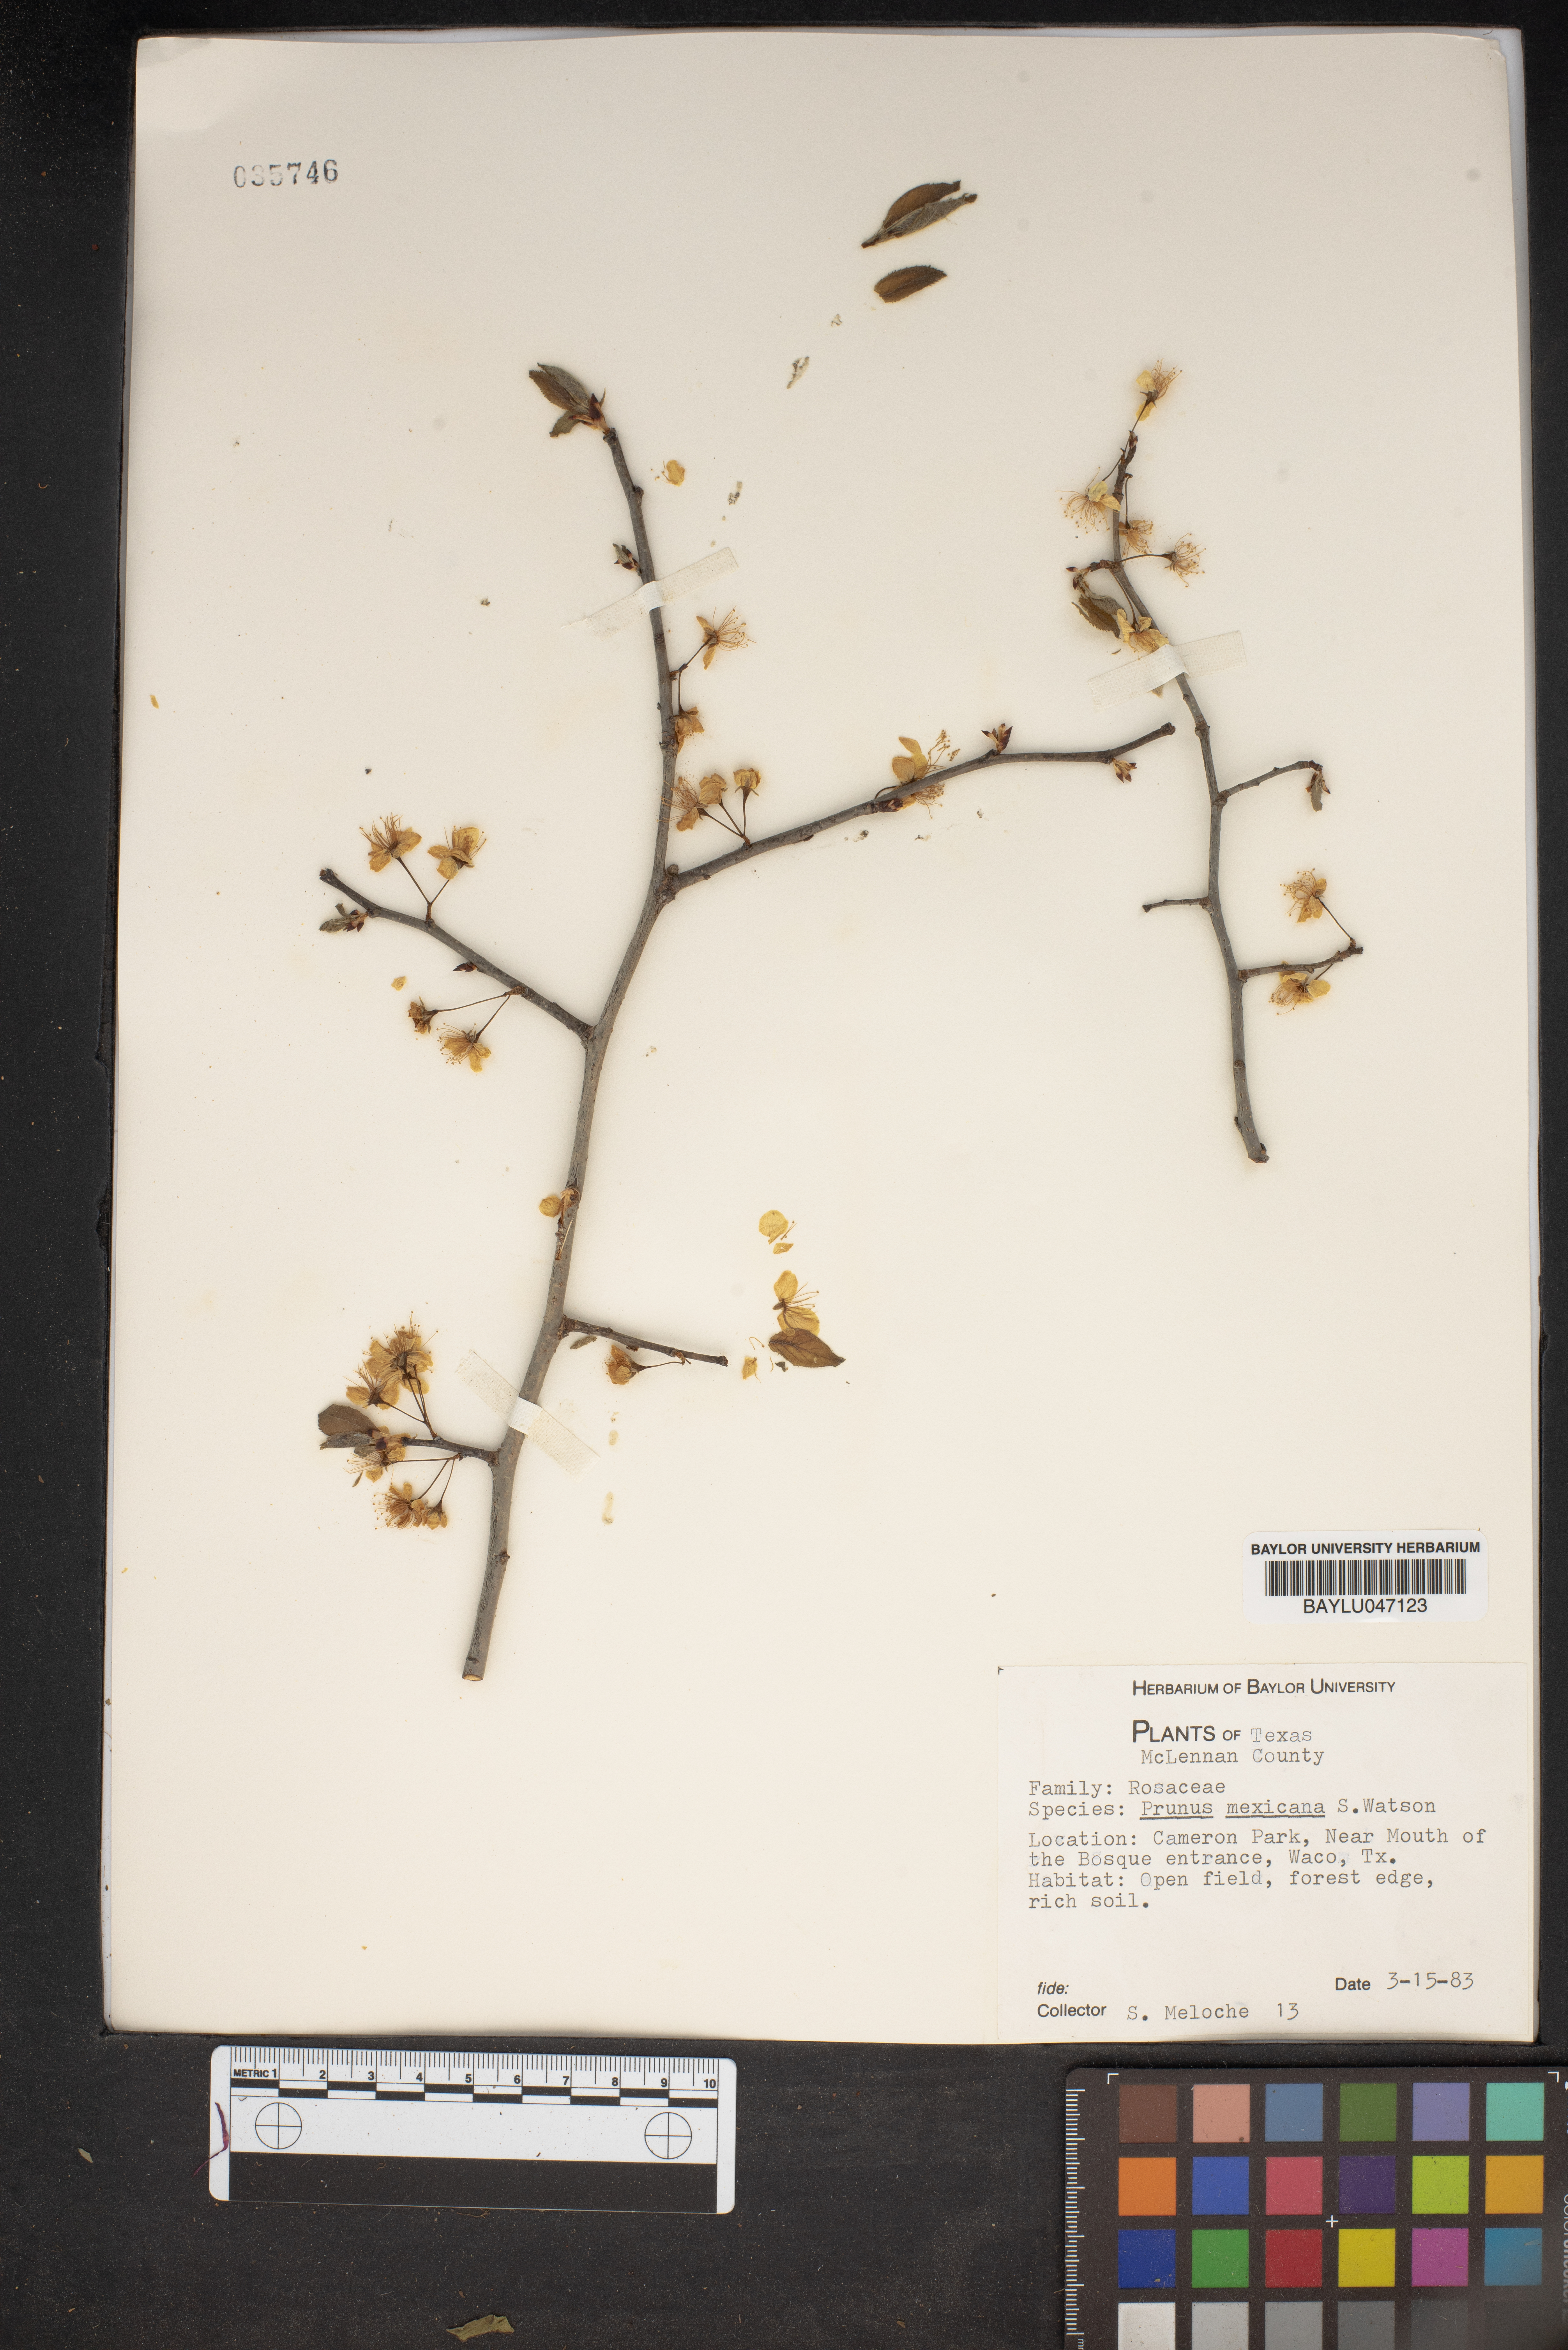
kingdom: Plantae
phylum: Tracheophyta
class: Magnoliopsida
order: Rosales
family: Rosaceae
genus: Prunus
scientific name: Prunus mexicana
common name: Mexican plum
